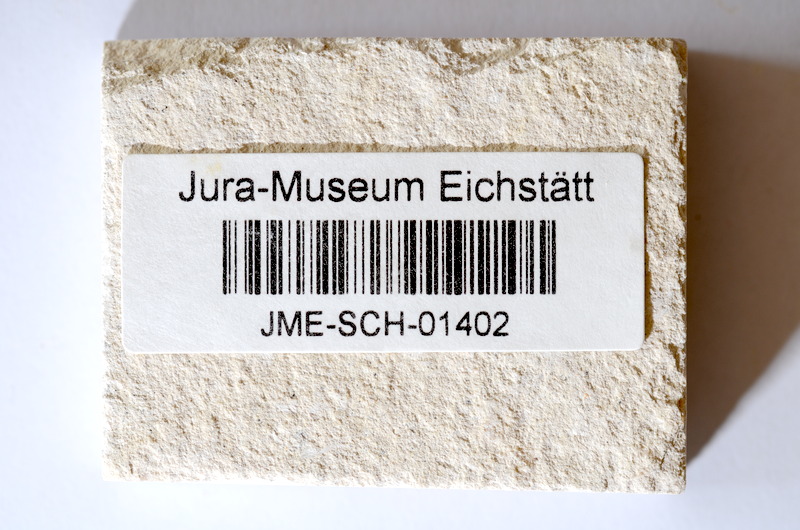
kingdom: Animalia
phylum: Chordata
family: Ascalaboidae
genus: Tharsis
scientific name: Tharsis dubius
